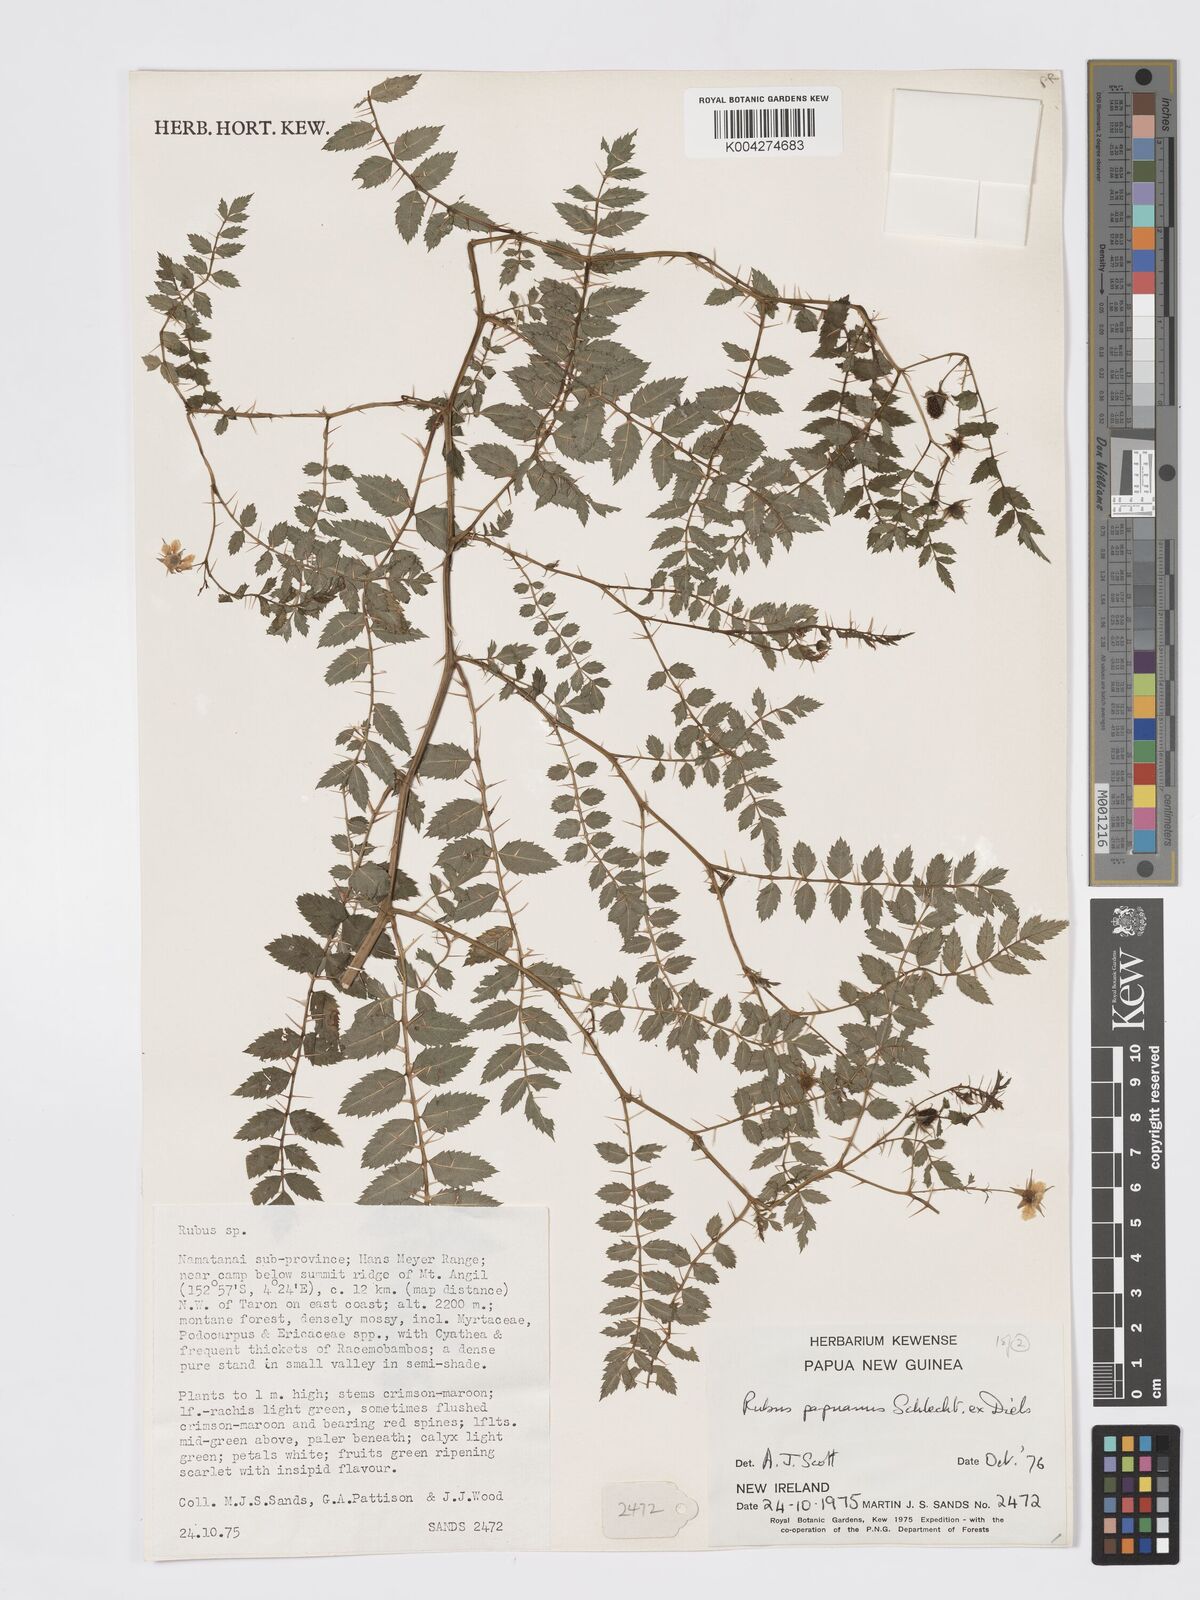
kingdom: Plantae
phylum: Tracheophyta
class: Magnoliopsida
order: Rosales
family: Rosaceae
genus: Rubus
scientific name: Rubus papuanus
